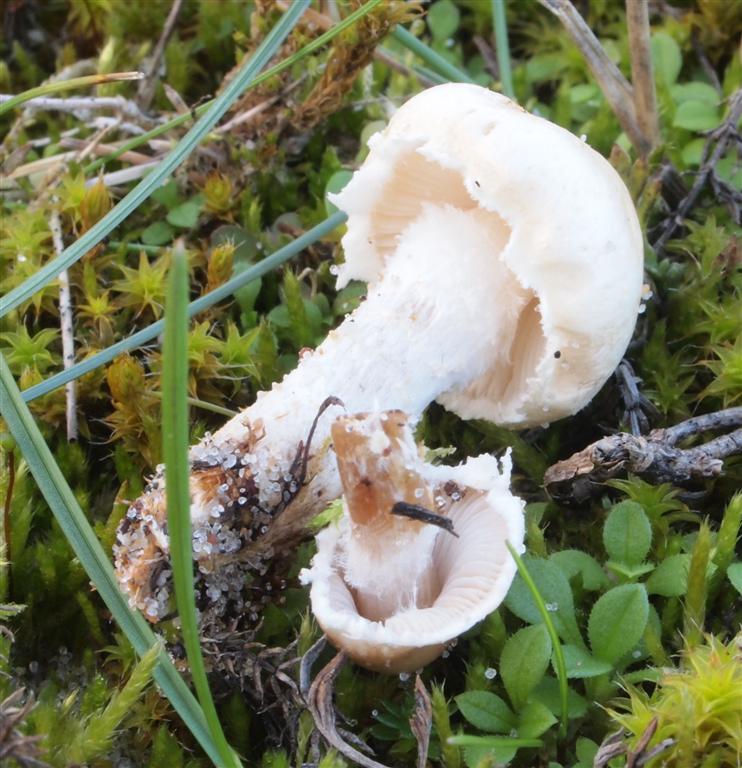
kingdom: Fungi
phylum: Basidiomycota
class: Agaricomycetes
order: Agaricales
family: Agaricaceae
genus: Lepiota
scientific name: Lepiota erminea
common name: hvid parasolhat
